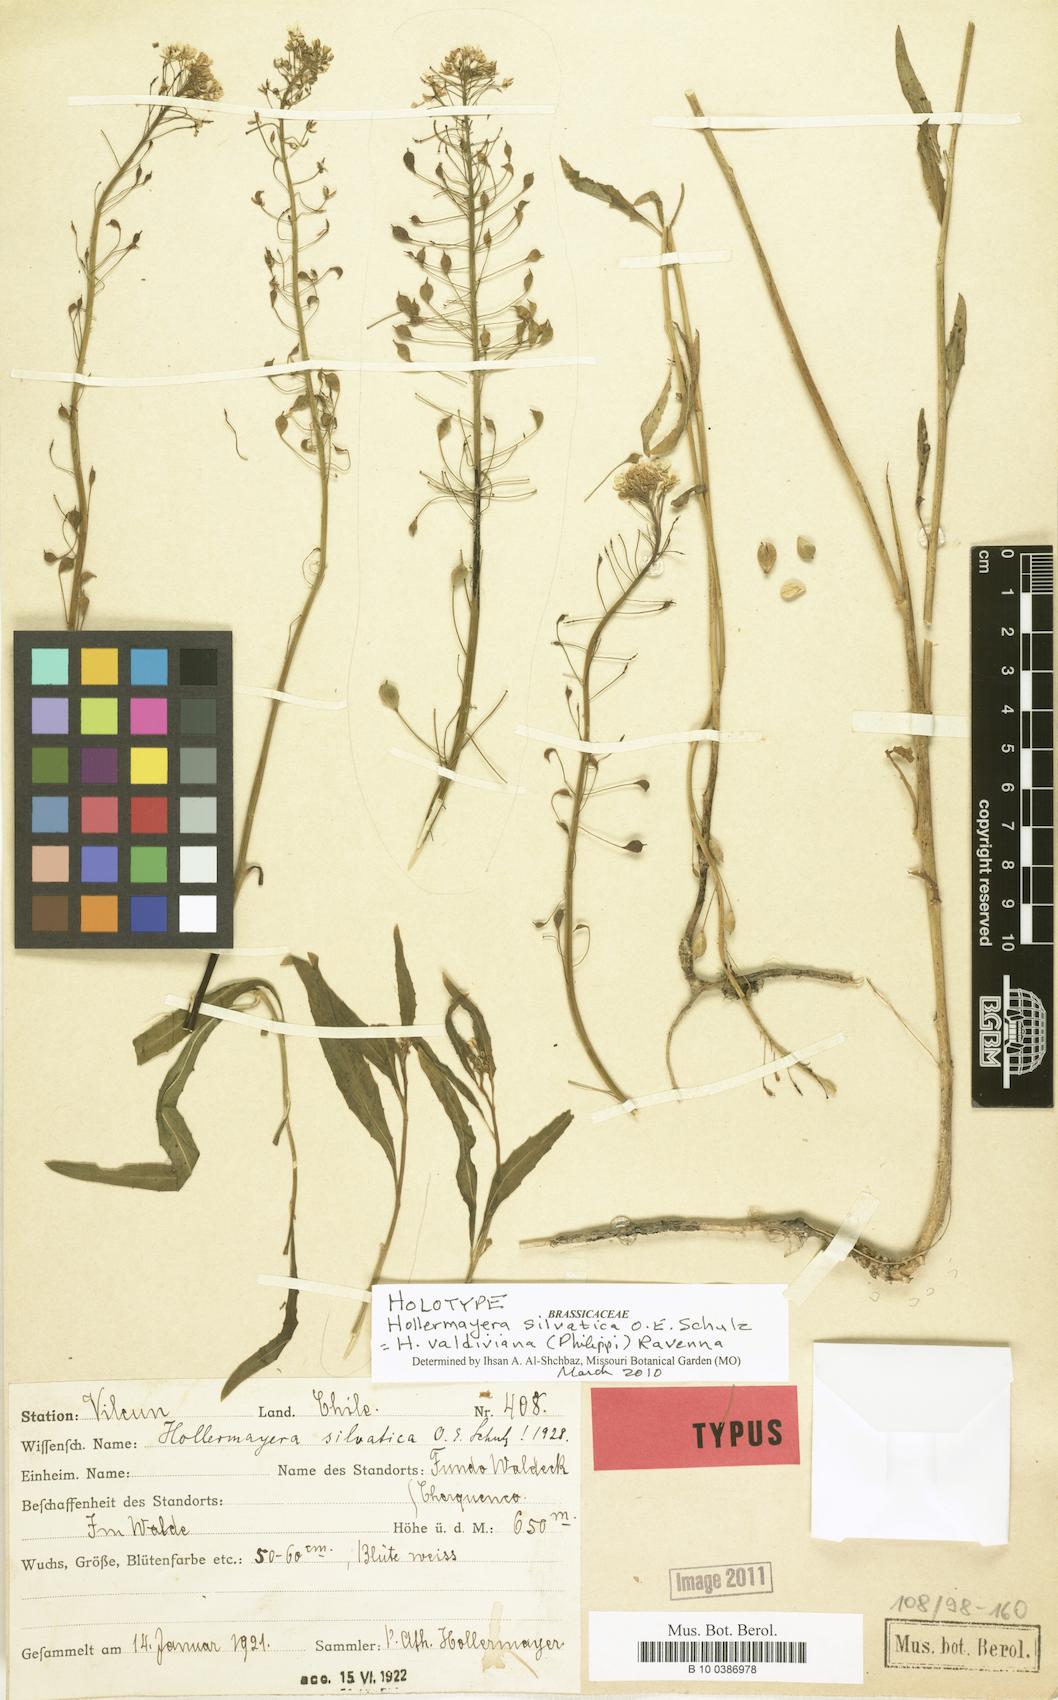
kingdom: Plantae
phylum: Tracheophyta
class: Magnoliopsida
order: Brassicales
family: Brassicaceae
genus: Hollermayera
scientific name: Hollermayera valdiviana
